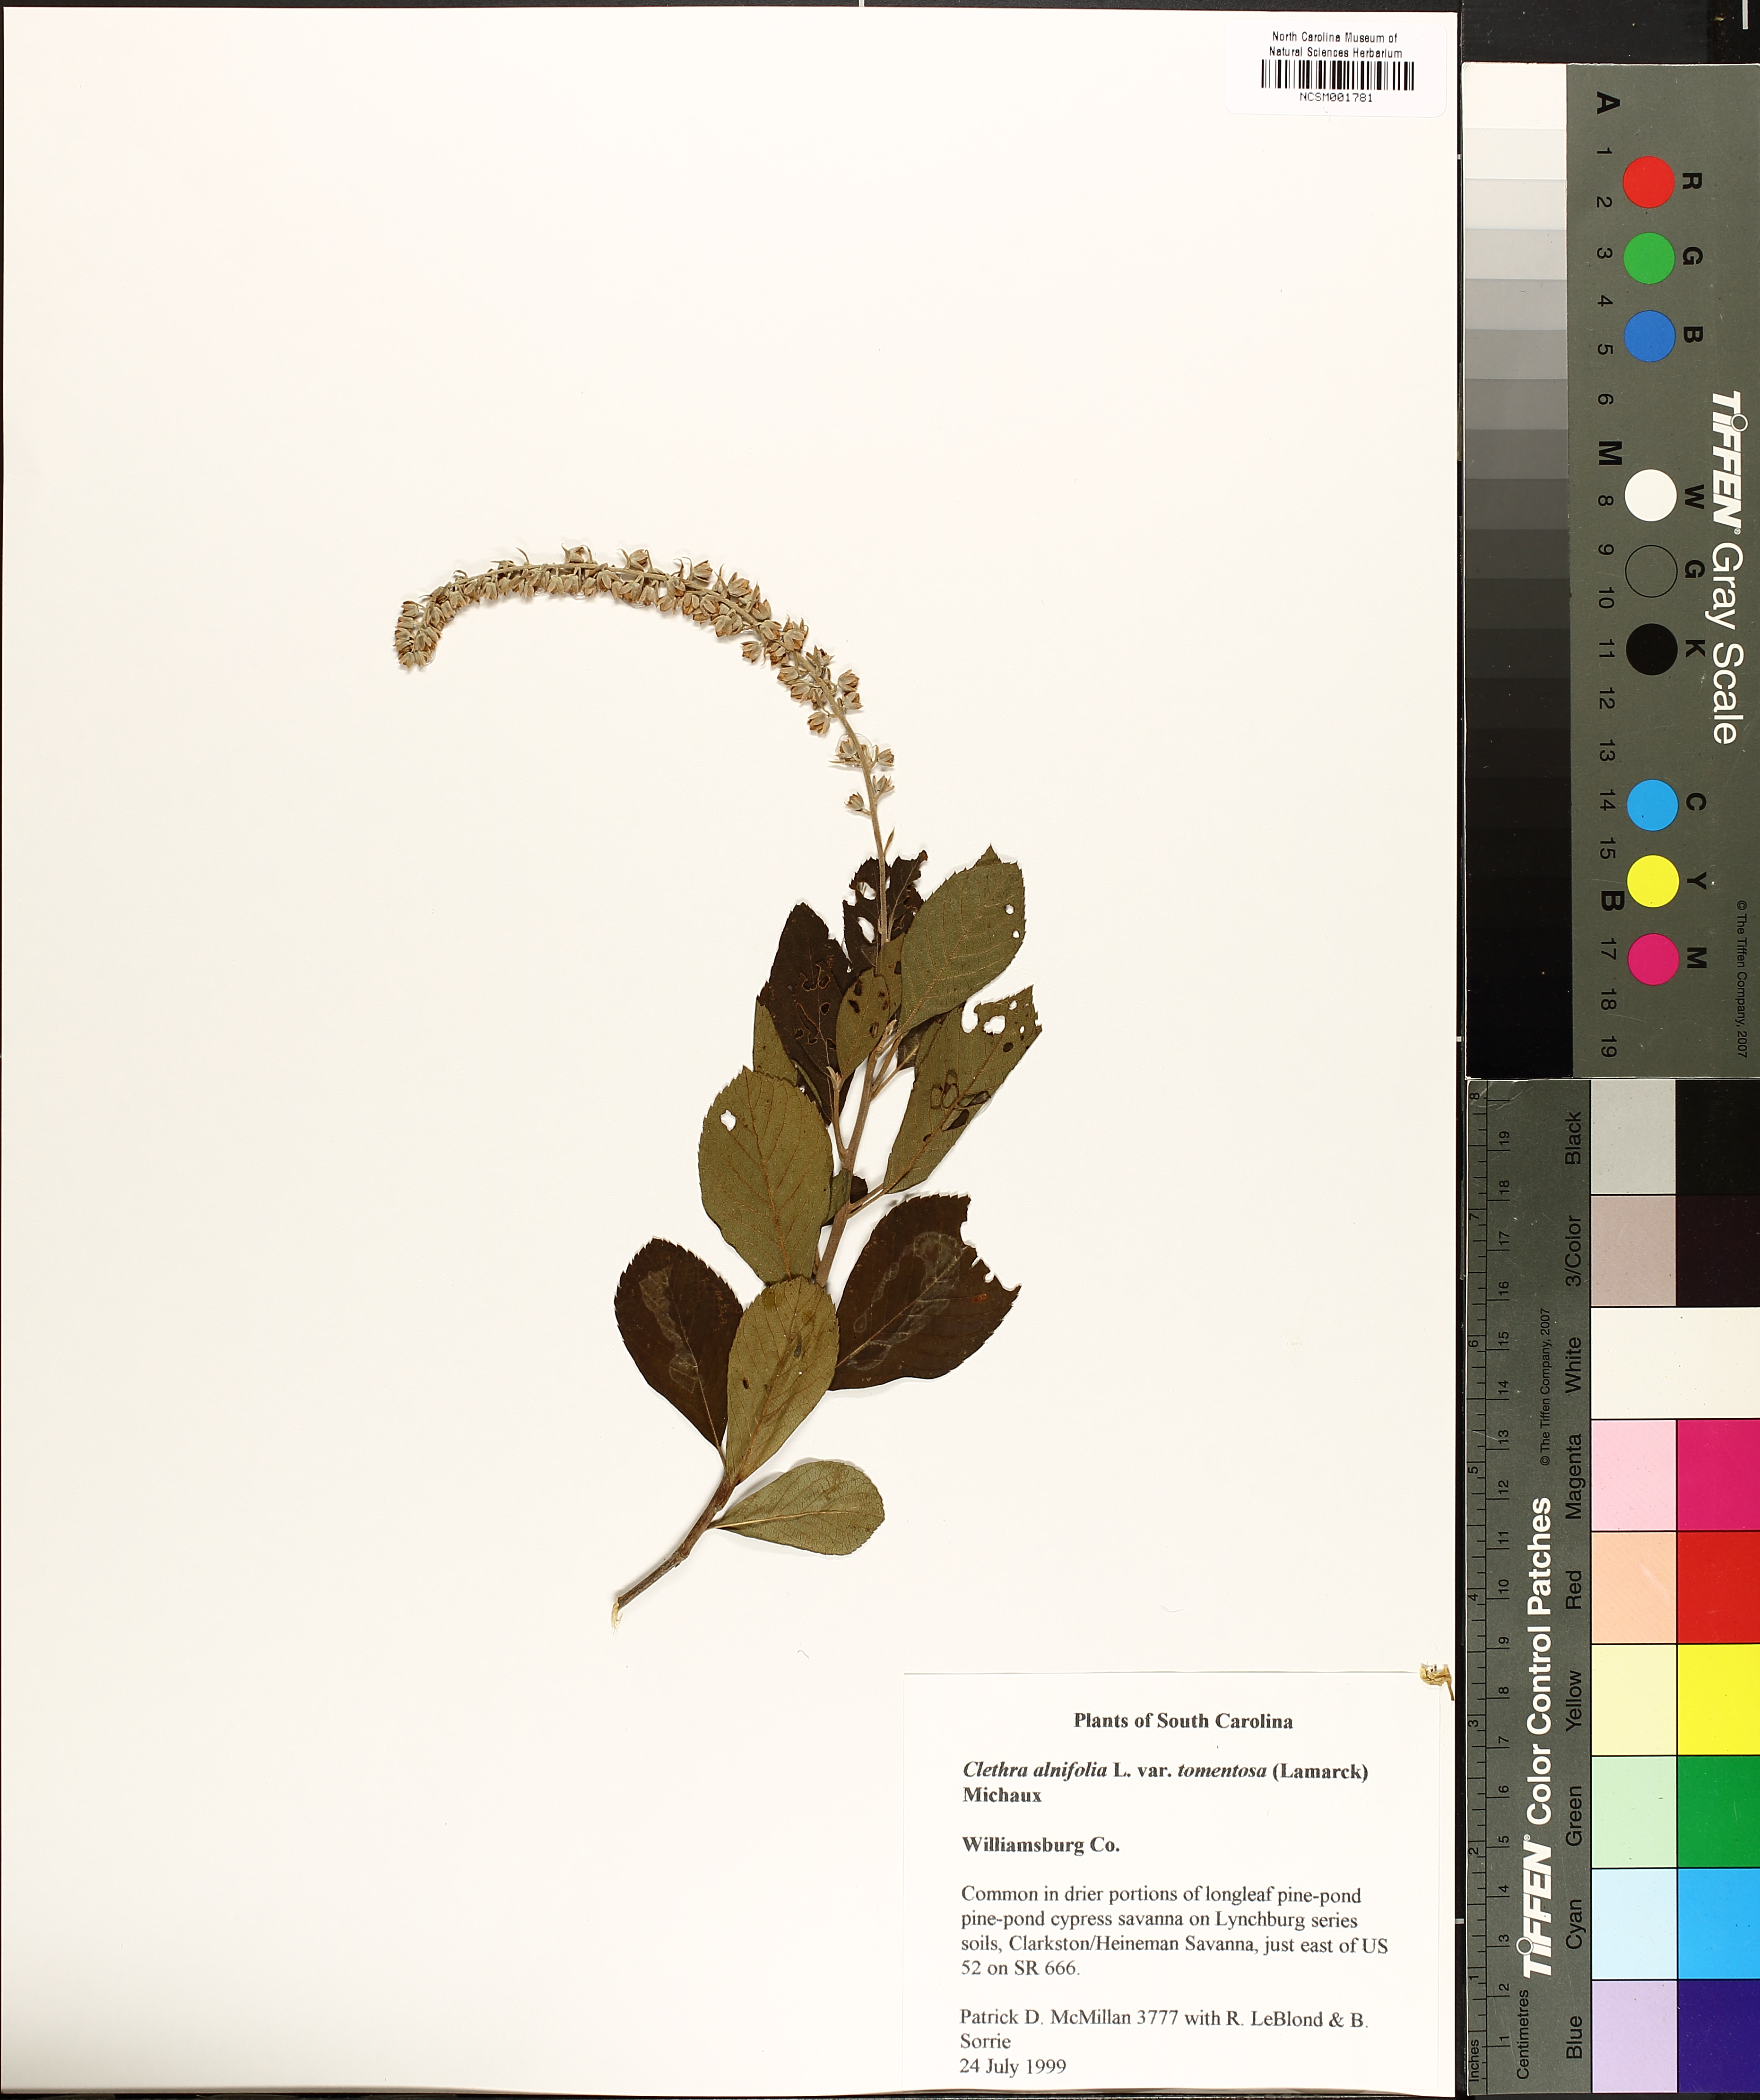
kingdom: Plantae
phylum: Tracheophyta
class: Magnoliopsida
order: Ericales
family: Clethraceae
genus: Clethra
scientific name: Clethra tomentosa
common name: Downy sweet pepperbush
